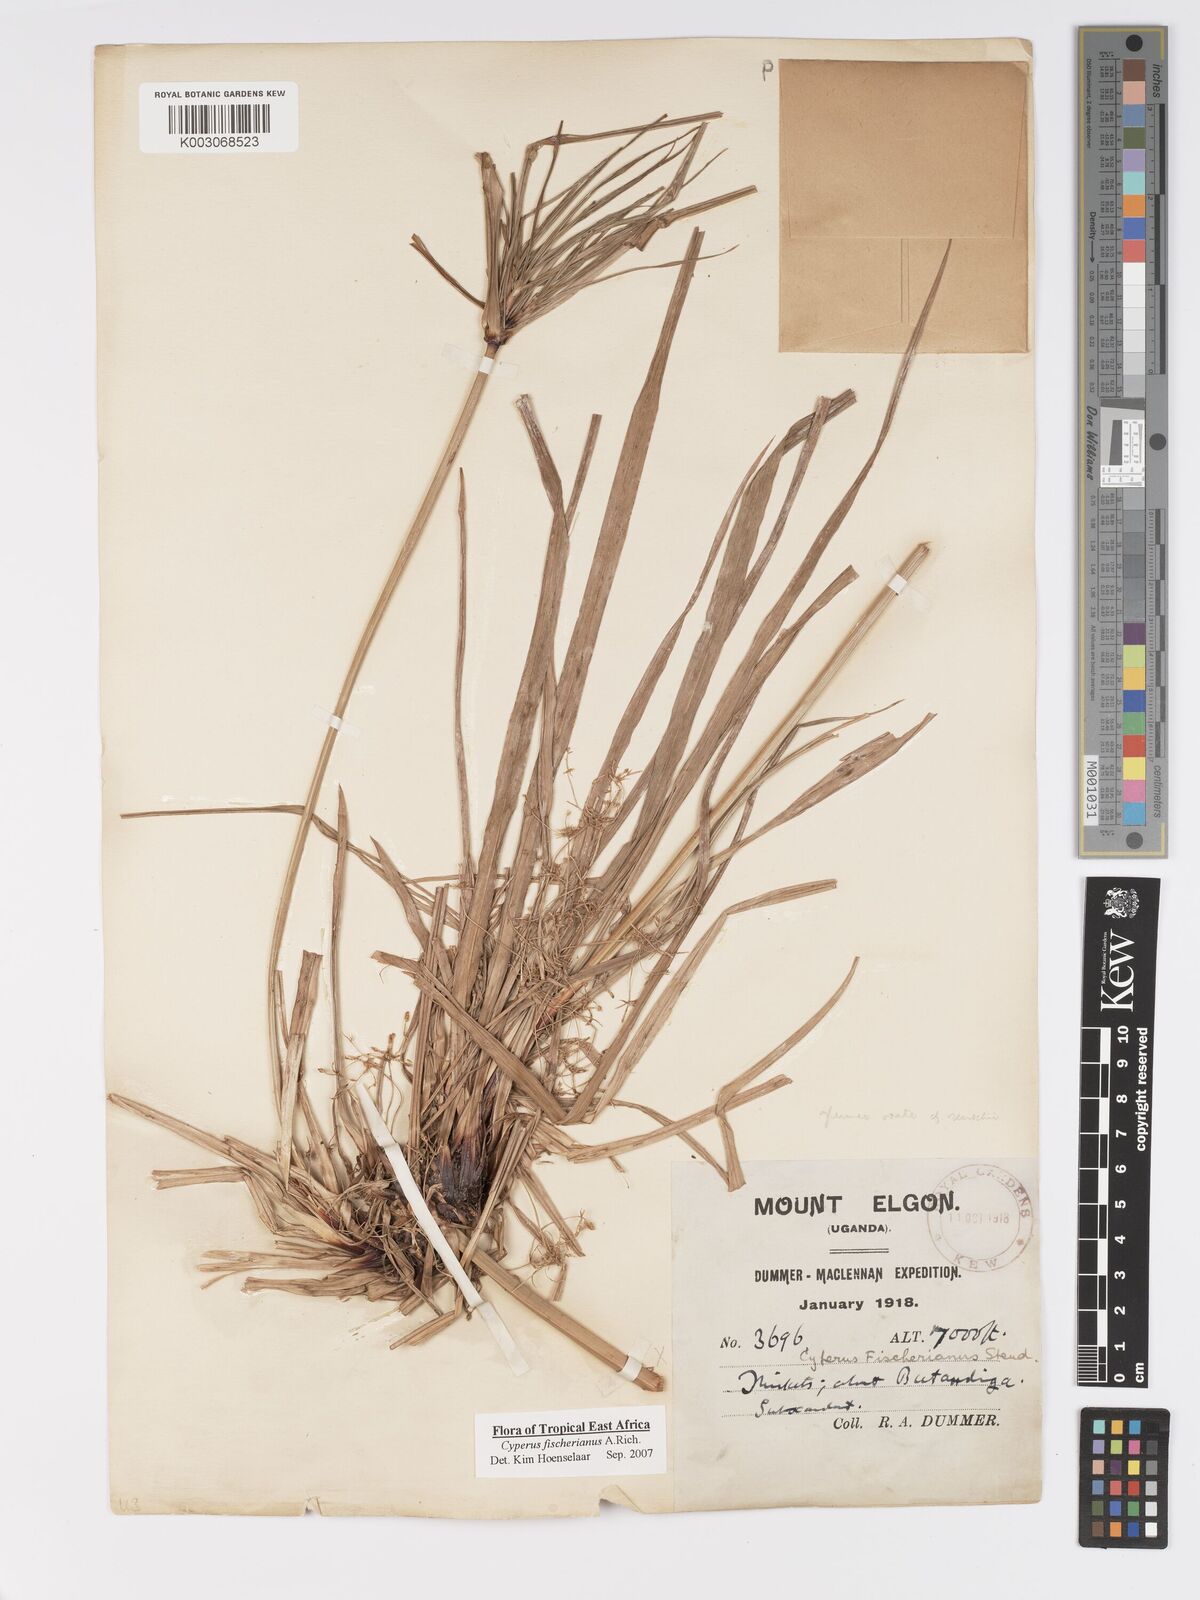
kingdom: Plantae
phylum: Tracheophyta
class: Liliopsida
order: Poales
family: Cyperaceae
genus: Cyperus
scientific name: Cyperus fischerianus
